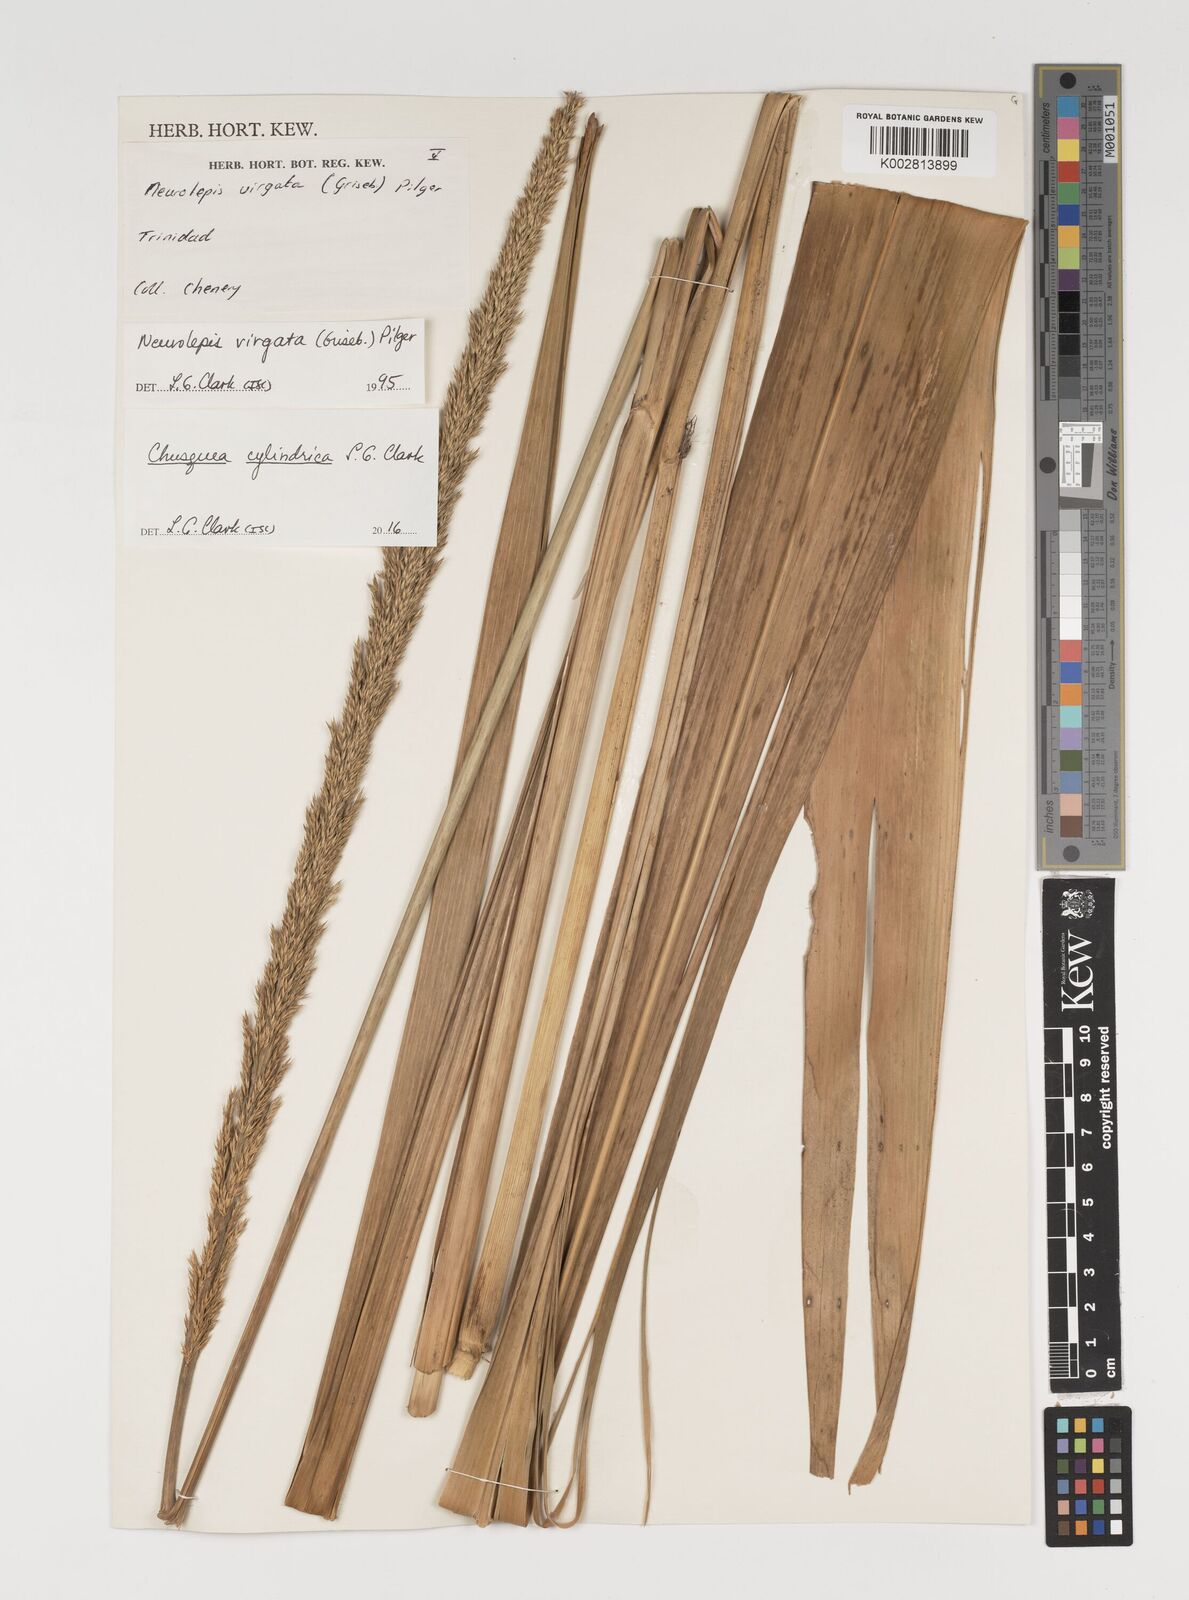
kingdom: Plantae
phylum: Tracheophyta
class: Liliopsida
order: Poales
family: Poaceae
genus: Chusquea
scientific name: Chusquea cylindrica
